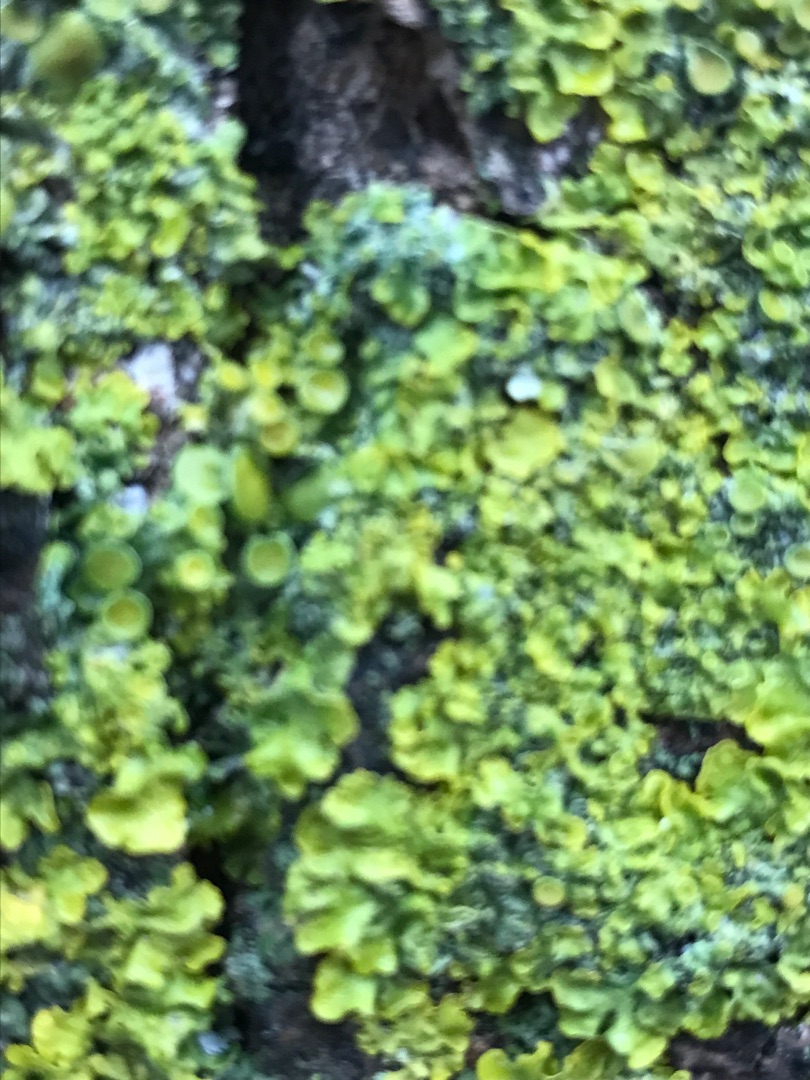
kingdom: Fungi
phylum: Ascomycota
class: Lecanoromycetes
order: Teloschistales
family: Teloschistaceae
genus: Xanthoria
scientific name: Xanthoria parietina
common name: Almindelig væggelav
